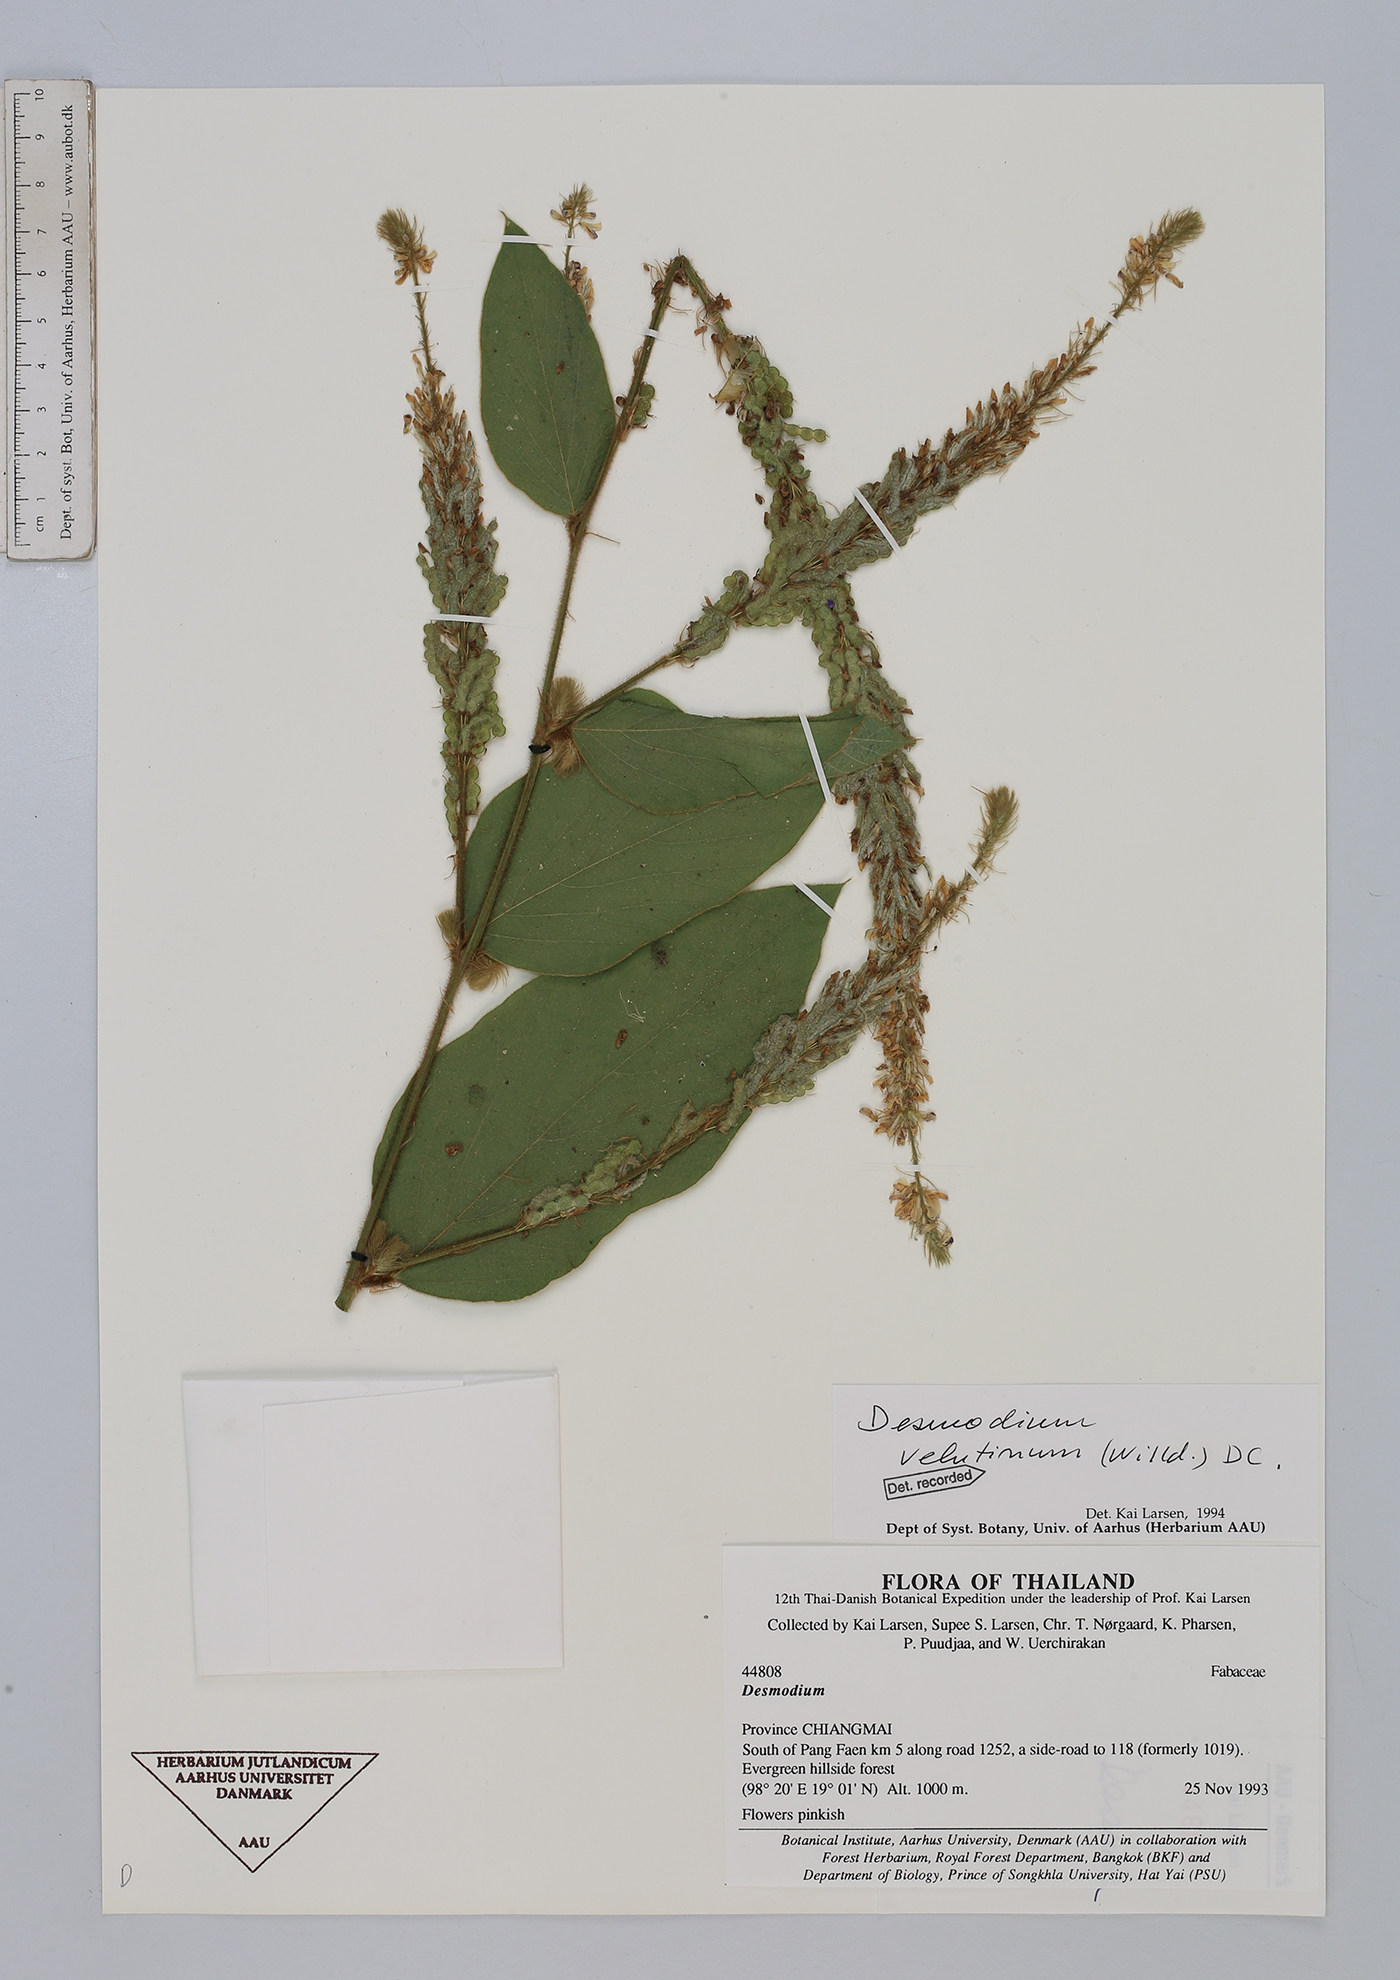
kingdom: Plantae
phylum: Tracheophyta
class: Magnoliopsida
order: Fabales
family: Fabaceae
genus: Polhillides
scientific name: Polhillides velutina
